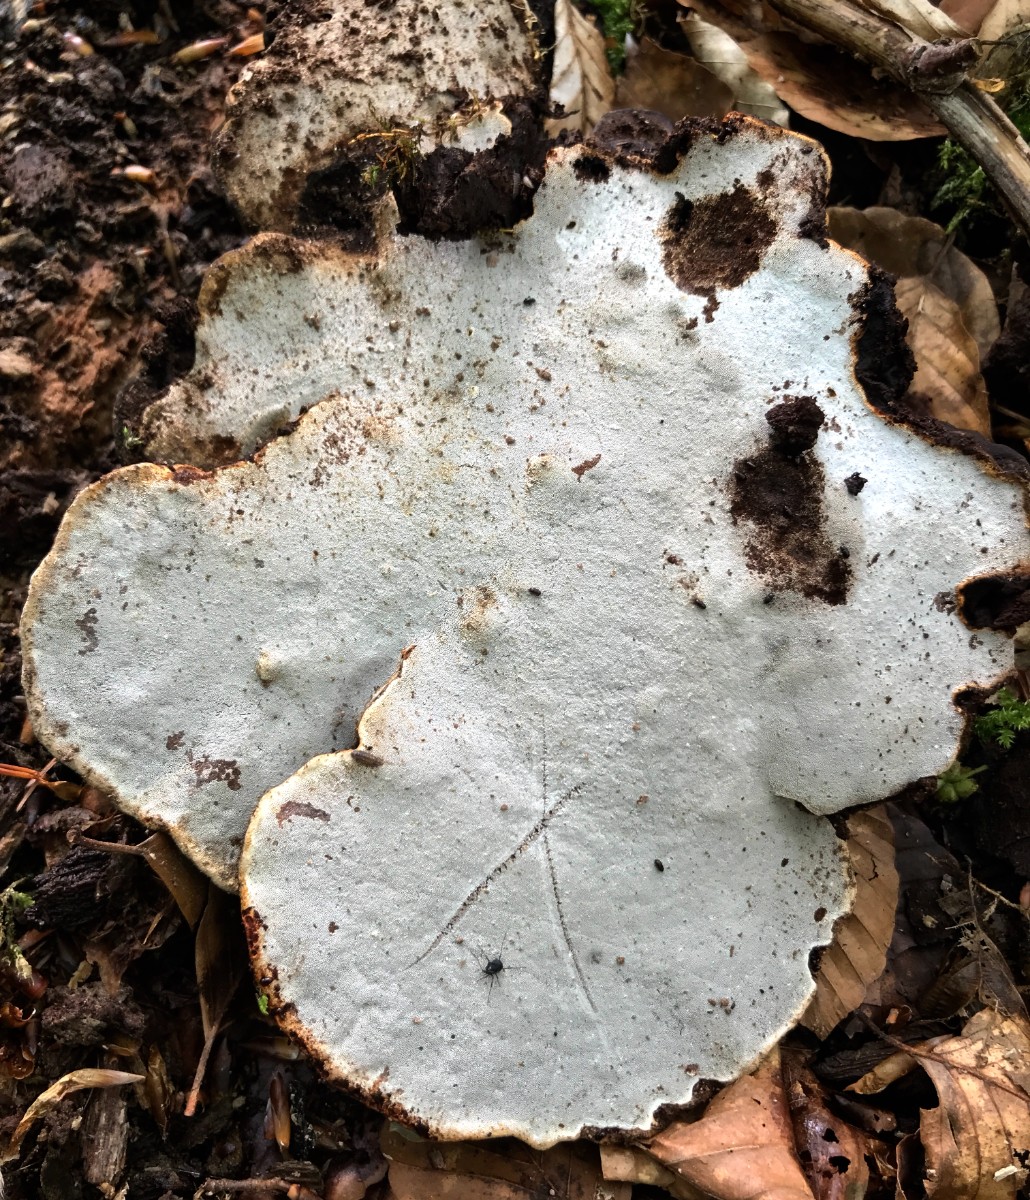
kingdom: Fungi
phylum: Basidiomycota
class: Agaricomycetes
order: Polyporales
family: Polyporaceae
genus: Ganoderma
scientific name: Ganoderma applanatum
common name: flad lakporesvamp
